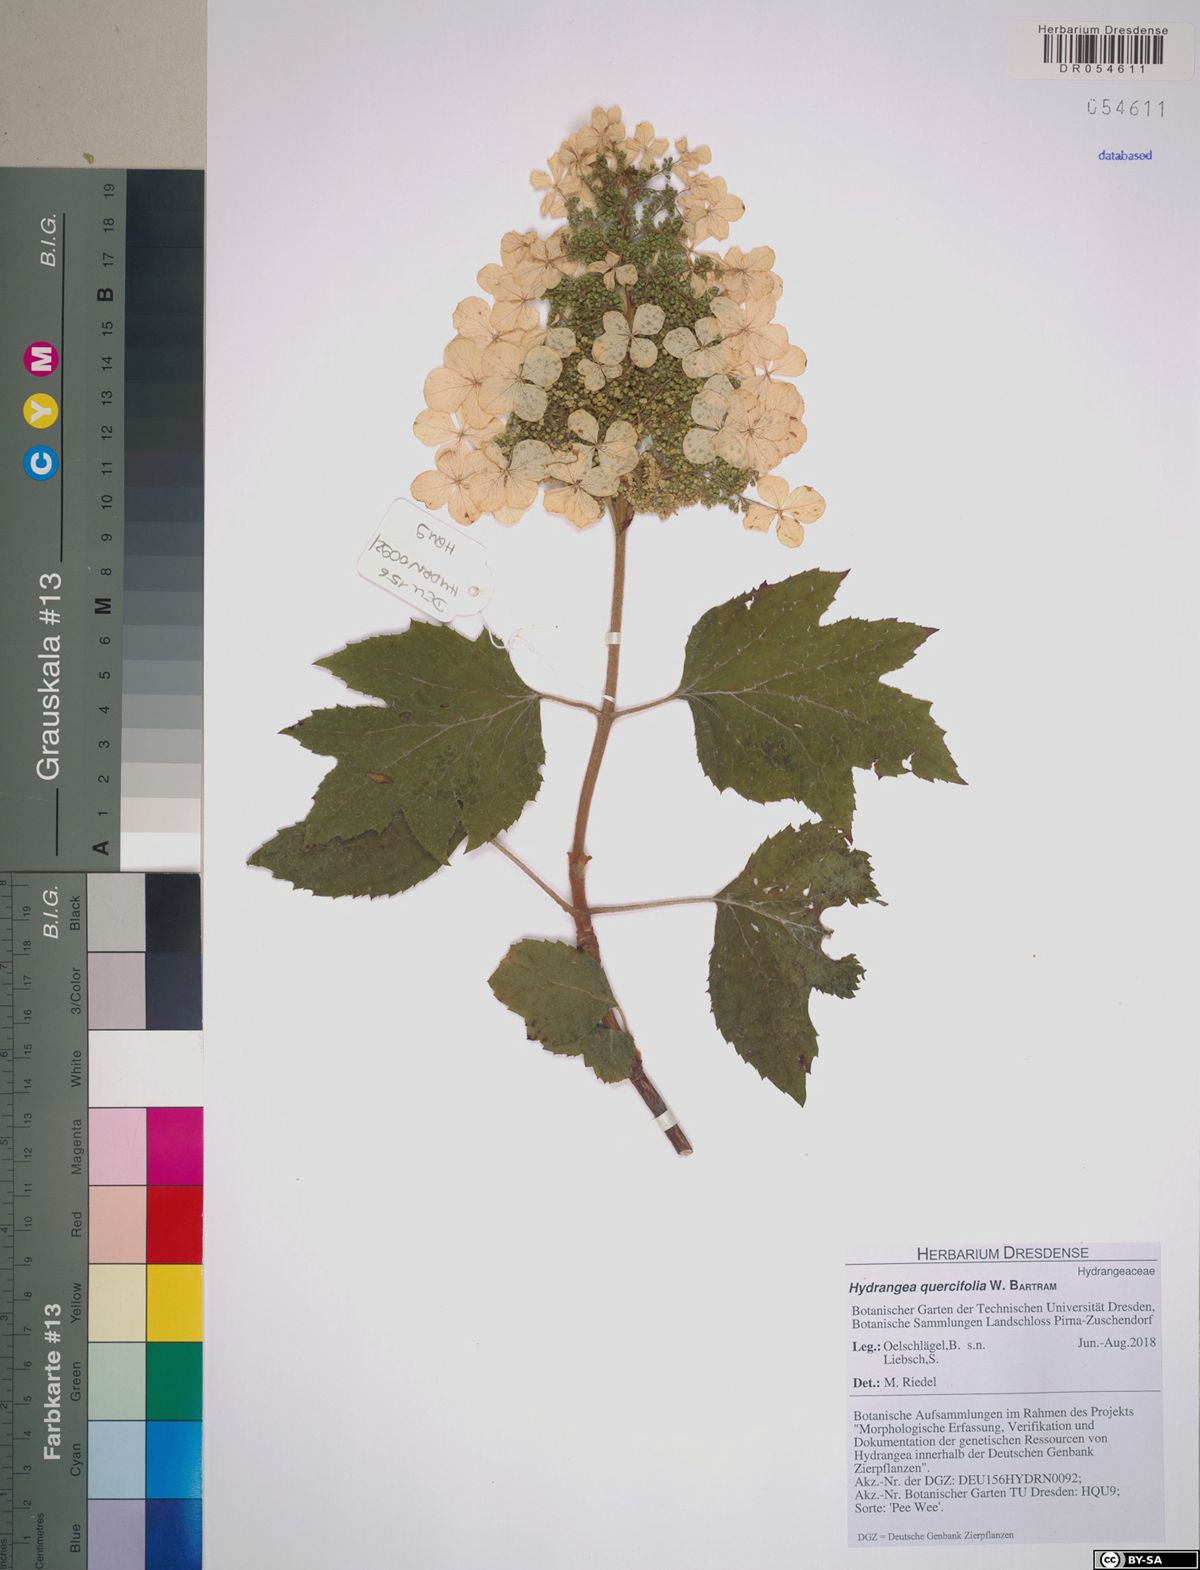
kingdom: Plantae
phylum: Tracheophyta
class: Magnoliopsida
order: Cornales
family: Hydrangeaceae
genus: Hydrangea
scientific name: Hydrangea quercifolia
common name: Oak-leaf hydrangea
